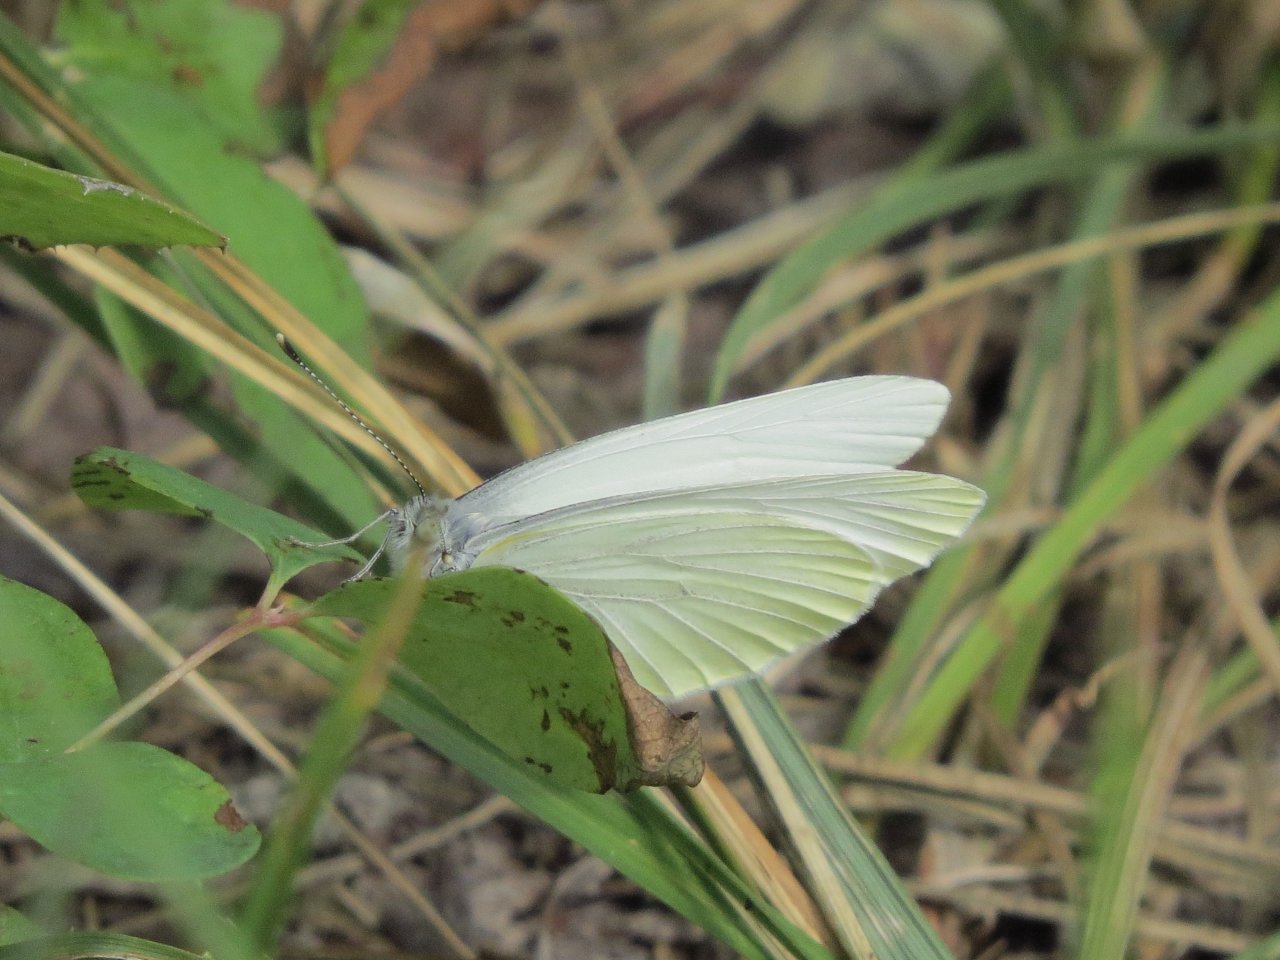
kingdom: Animalia
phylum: Arthropoda
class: Insecta
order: Lepidoptera
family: Pieridae
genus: Pieris
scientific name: Pieris oleracea
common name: Mustard White
